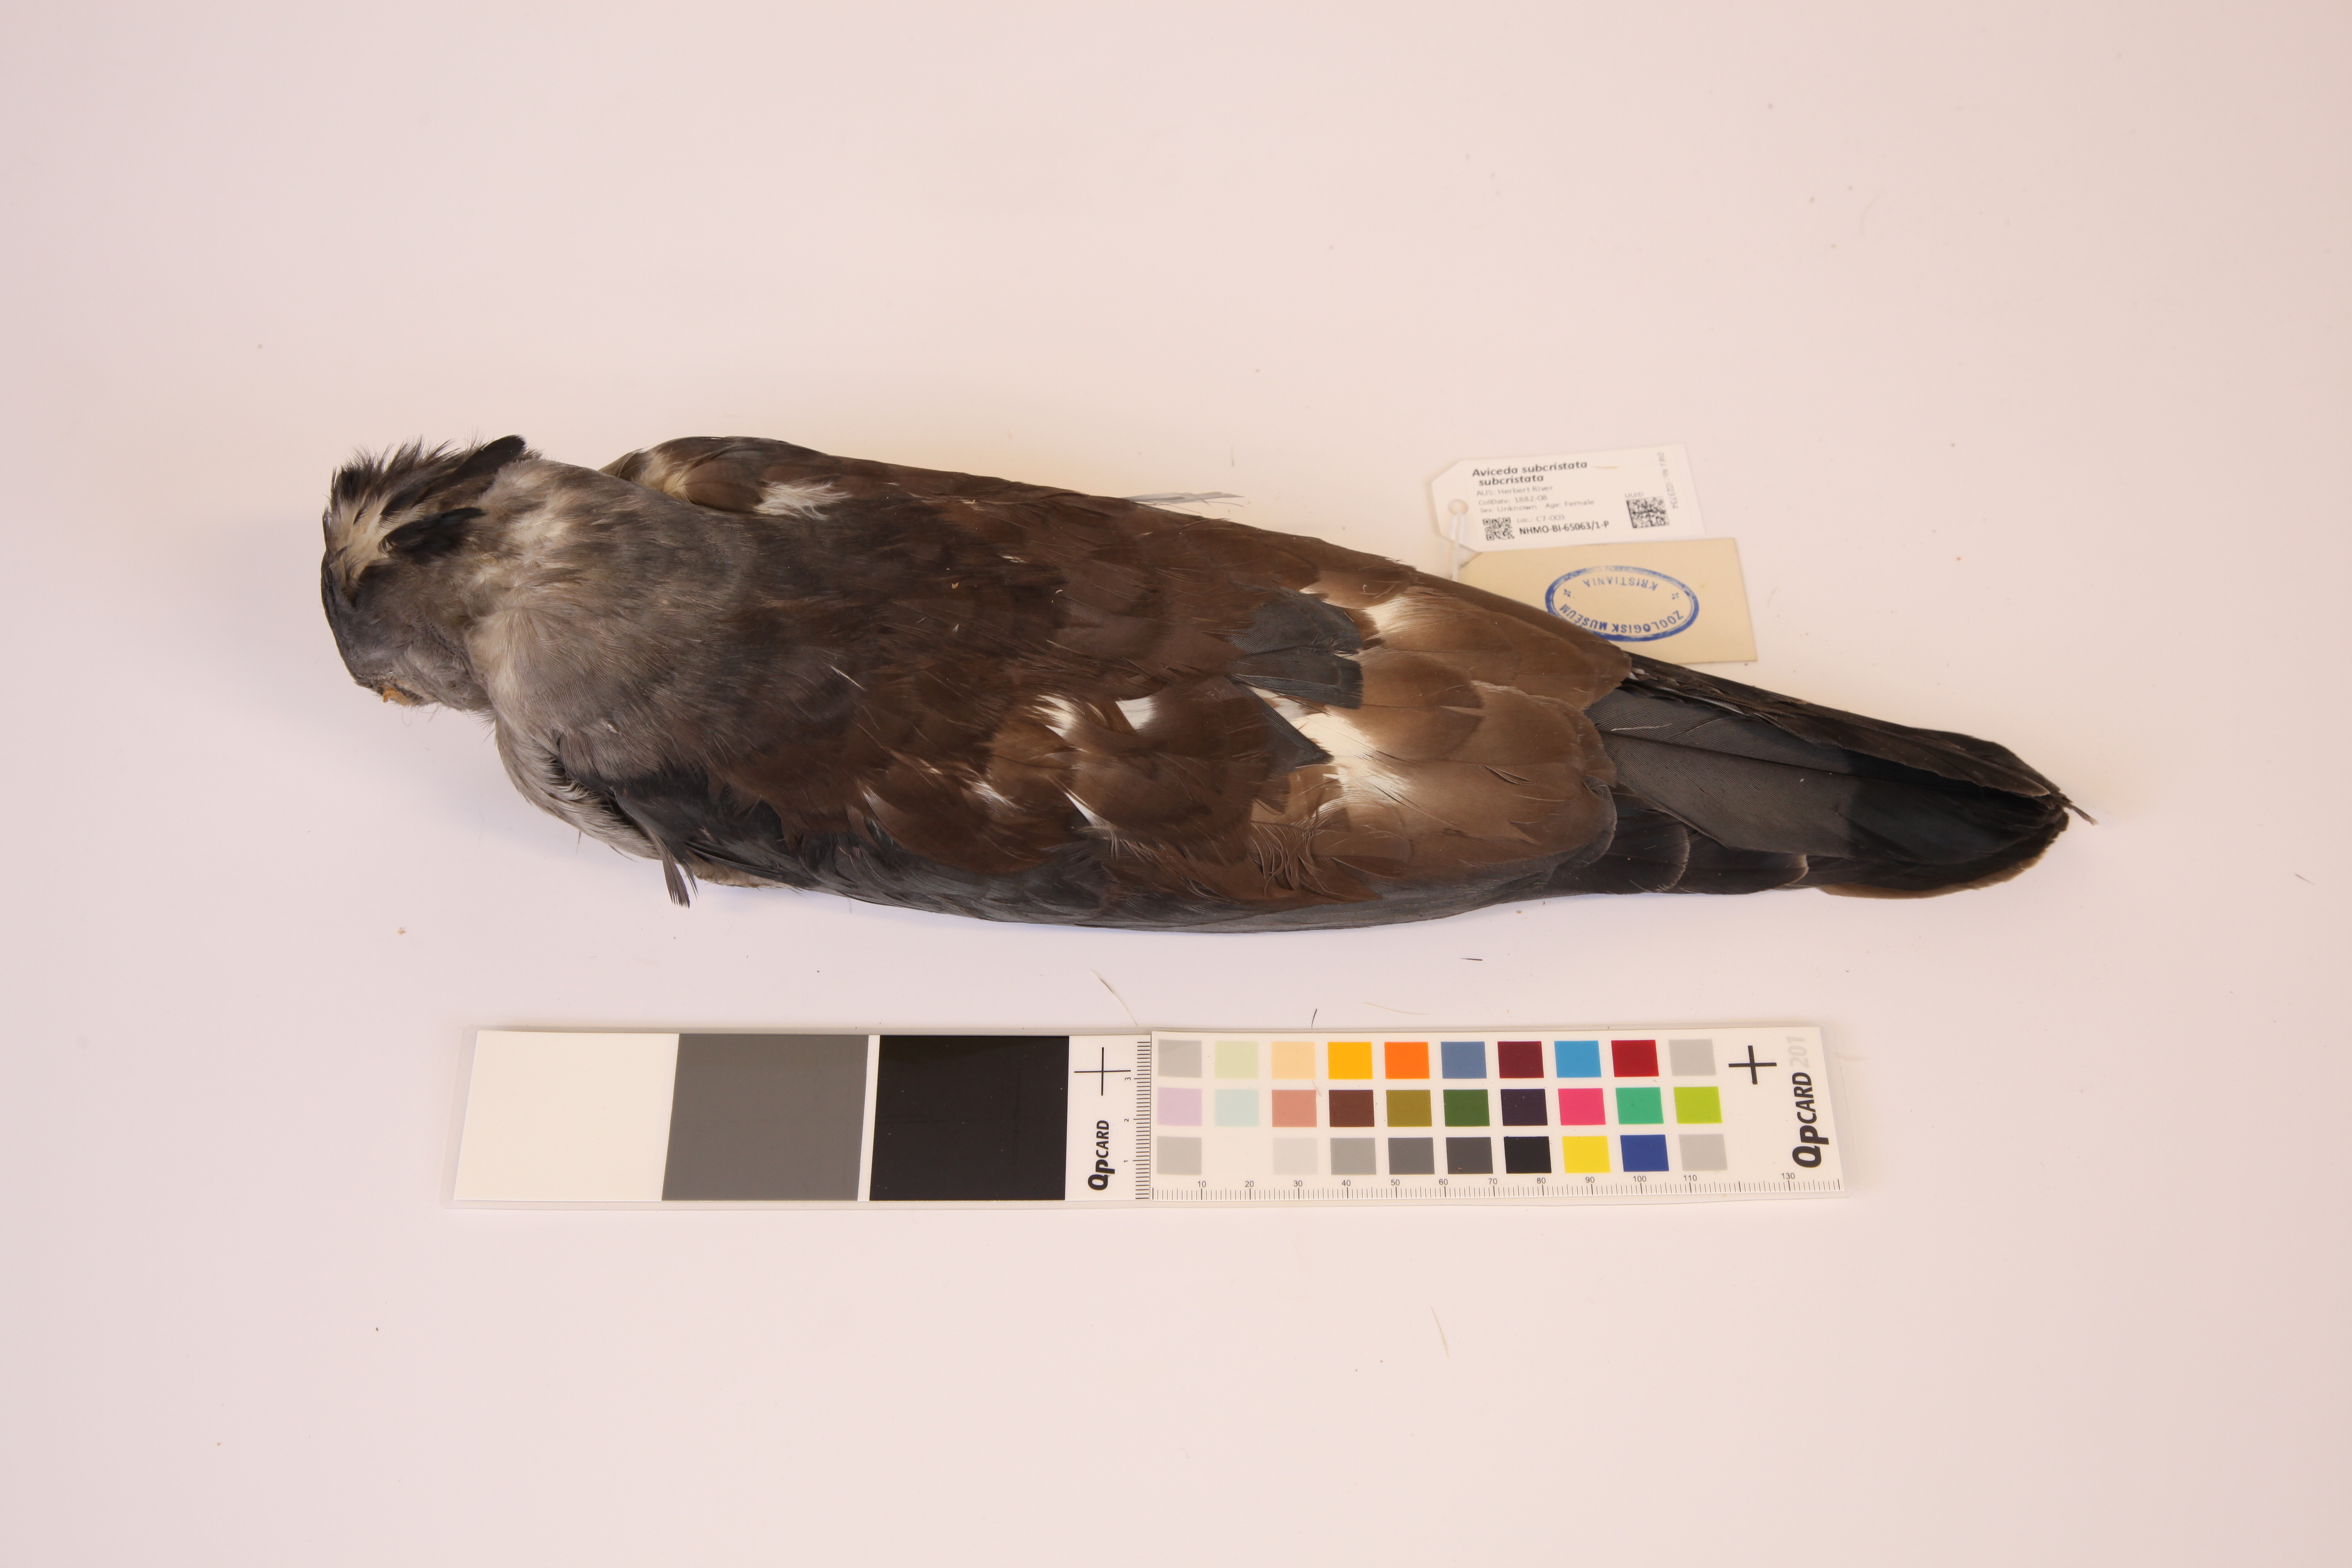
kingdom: Animalia
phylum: Chordata
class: Aves
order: Accipitriformes
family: Accipitridae
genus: Aviceda
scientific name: Aviceda subcristata
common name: Pacific baza
